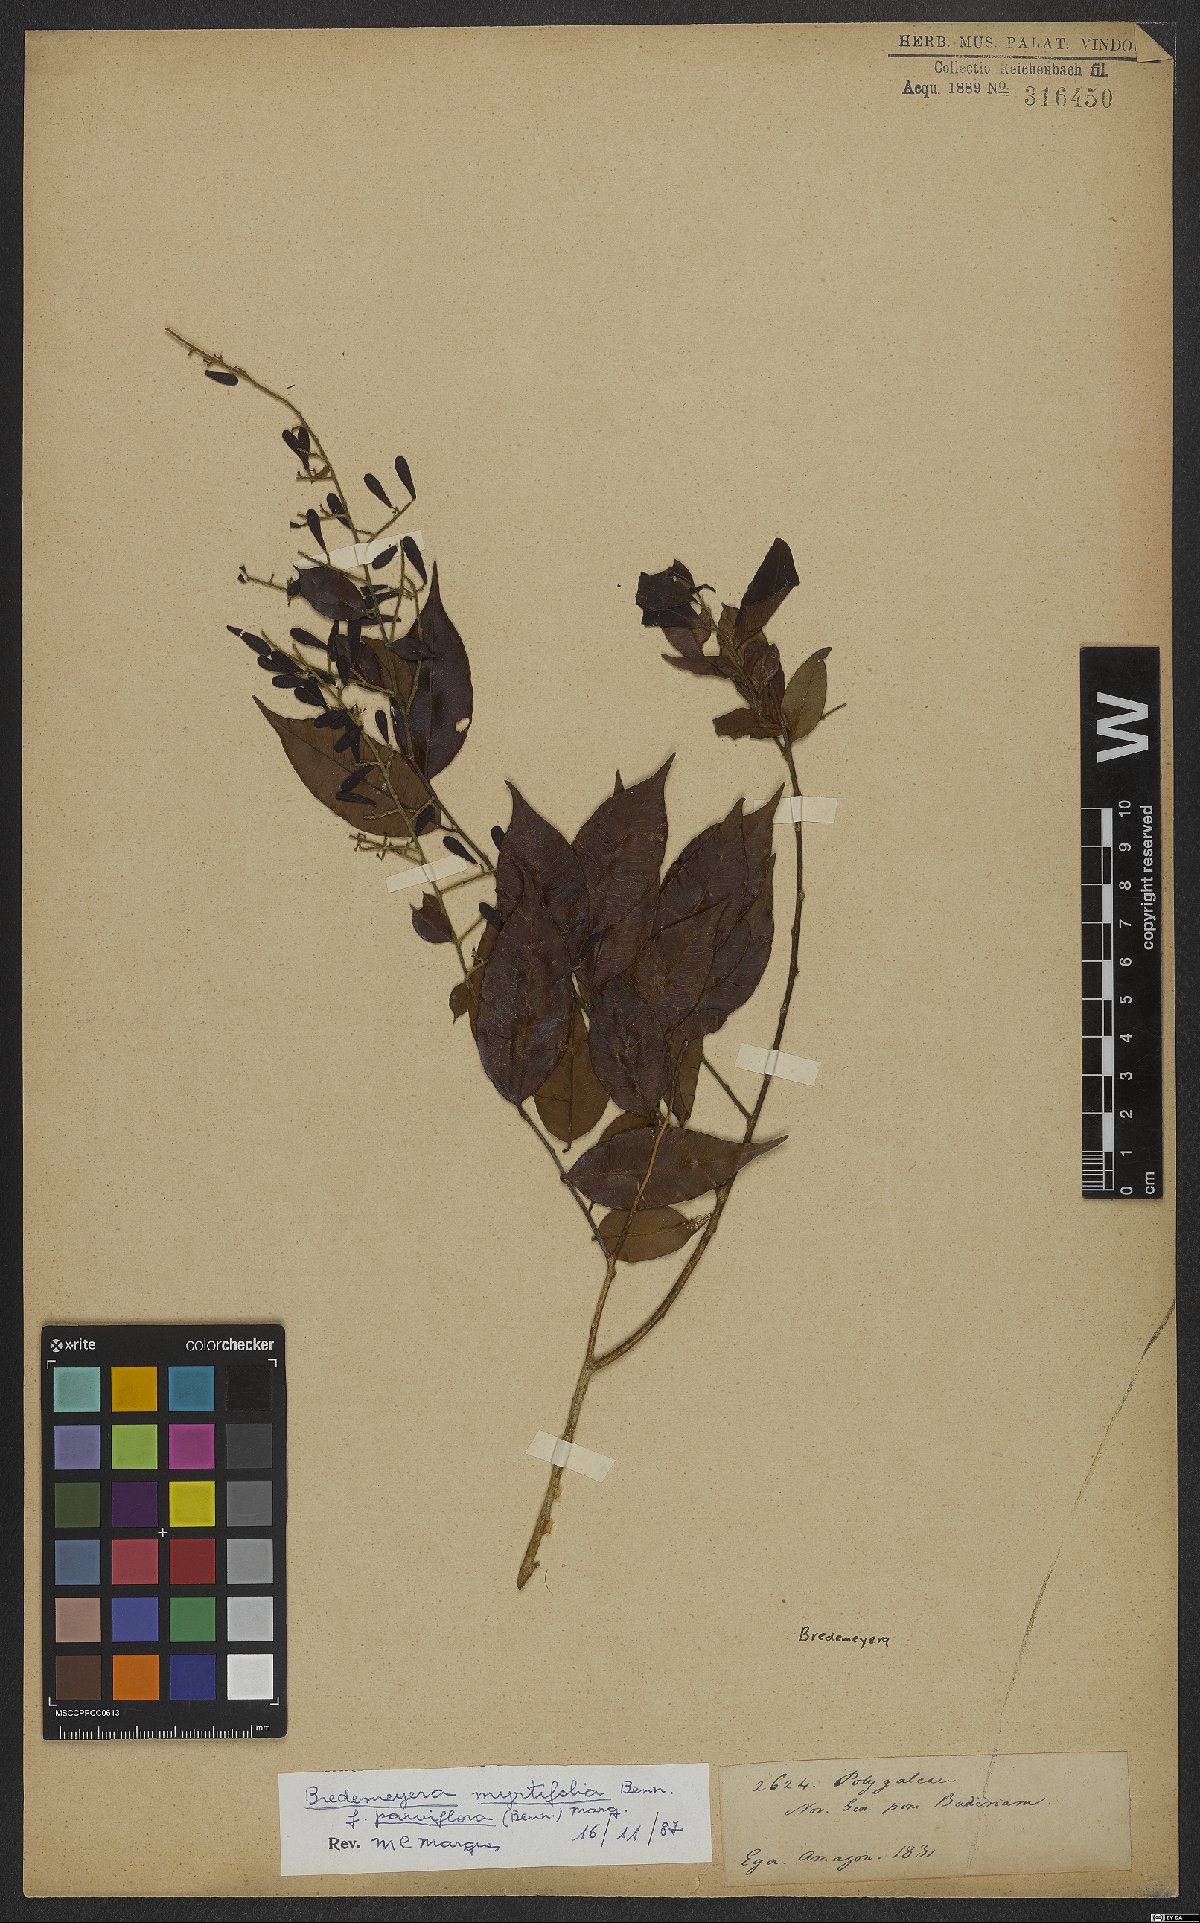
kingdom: Plantae
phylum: Tracheophyta
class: Magnoliopsida
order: Fabales
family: Polygalaceae
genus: Bredemeyera
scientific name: Bredemeyera
